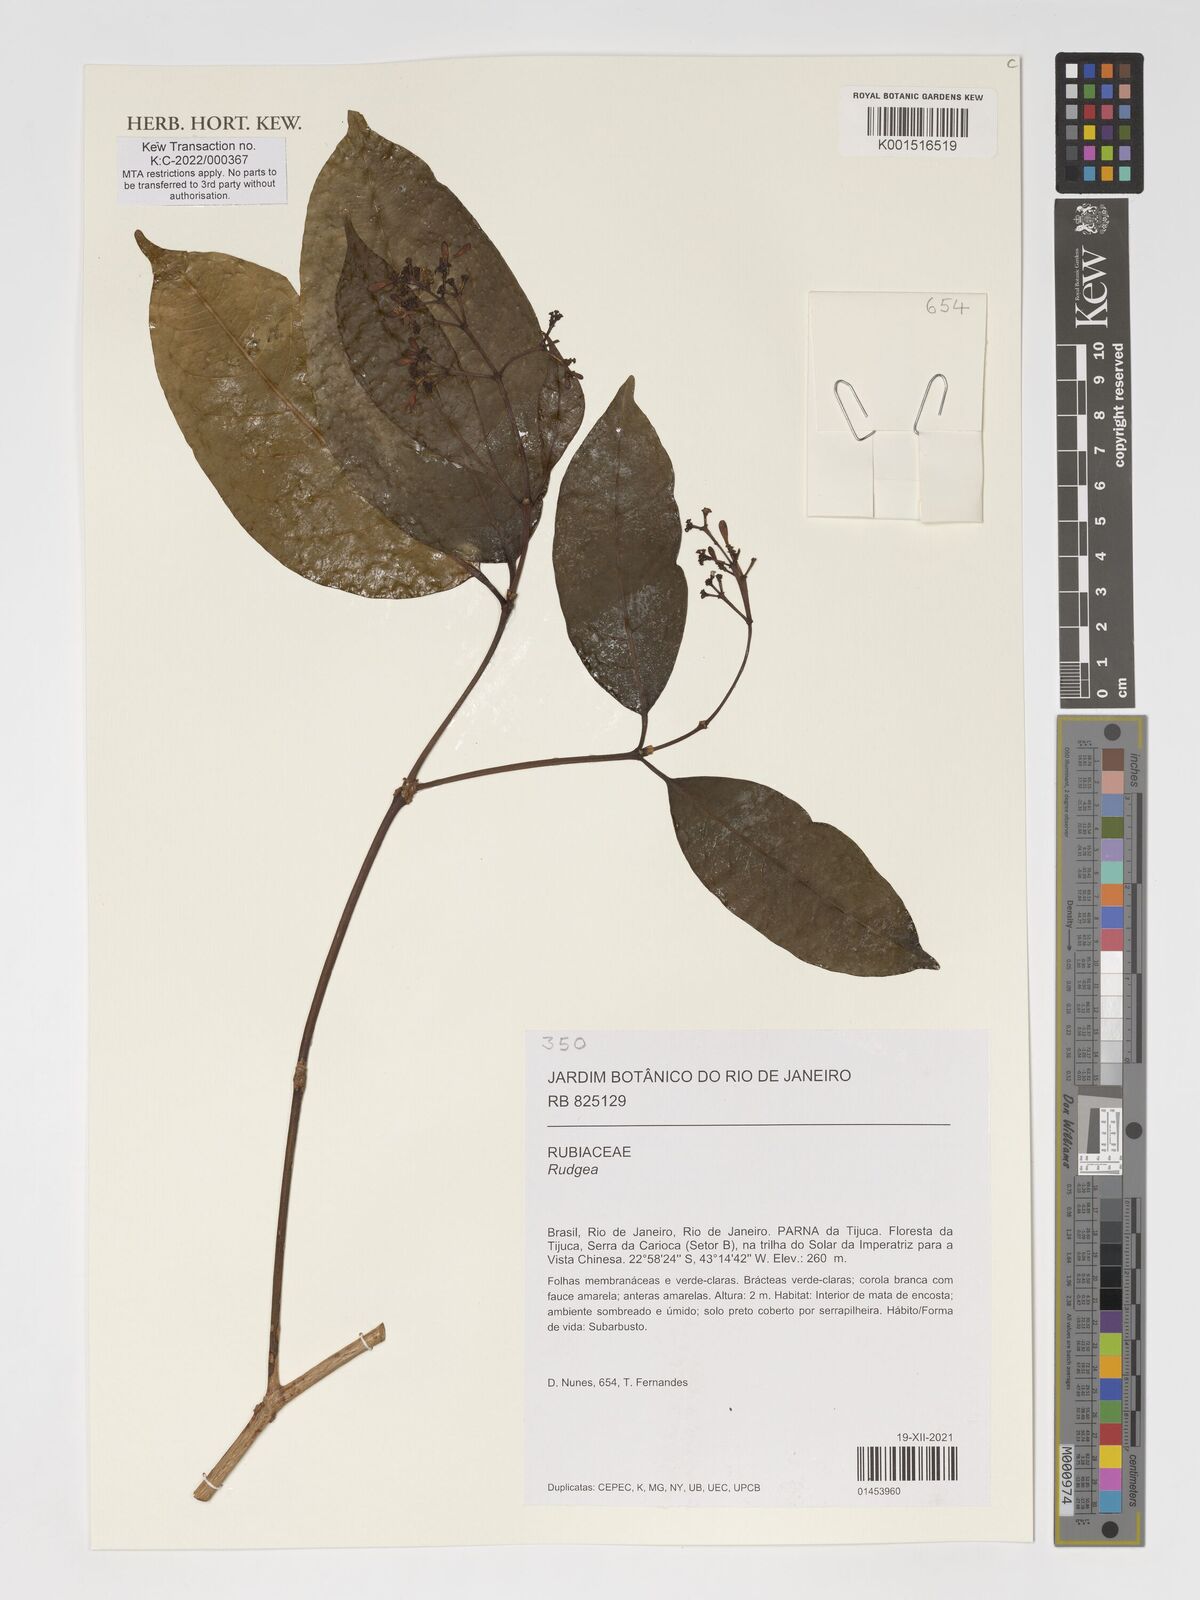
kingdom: Plantae
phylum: Tracheophyta
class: Magnoliopsida
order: Gentianales
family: Rubiaceae
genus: Rudgea
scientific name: Rudgea
